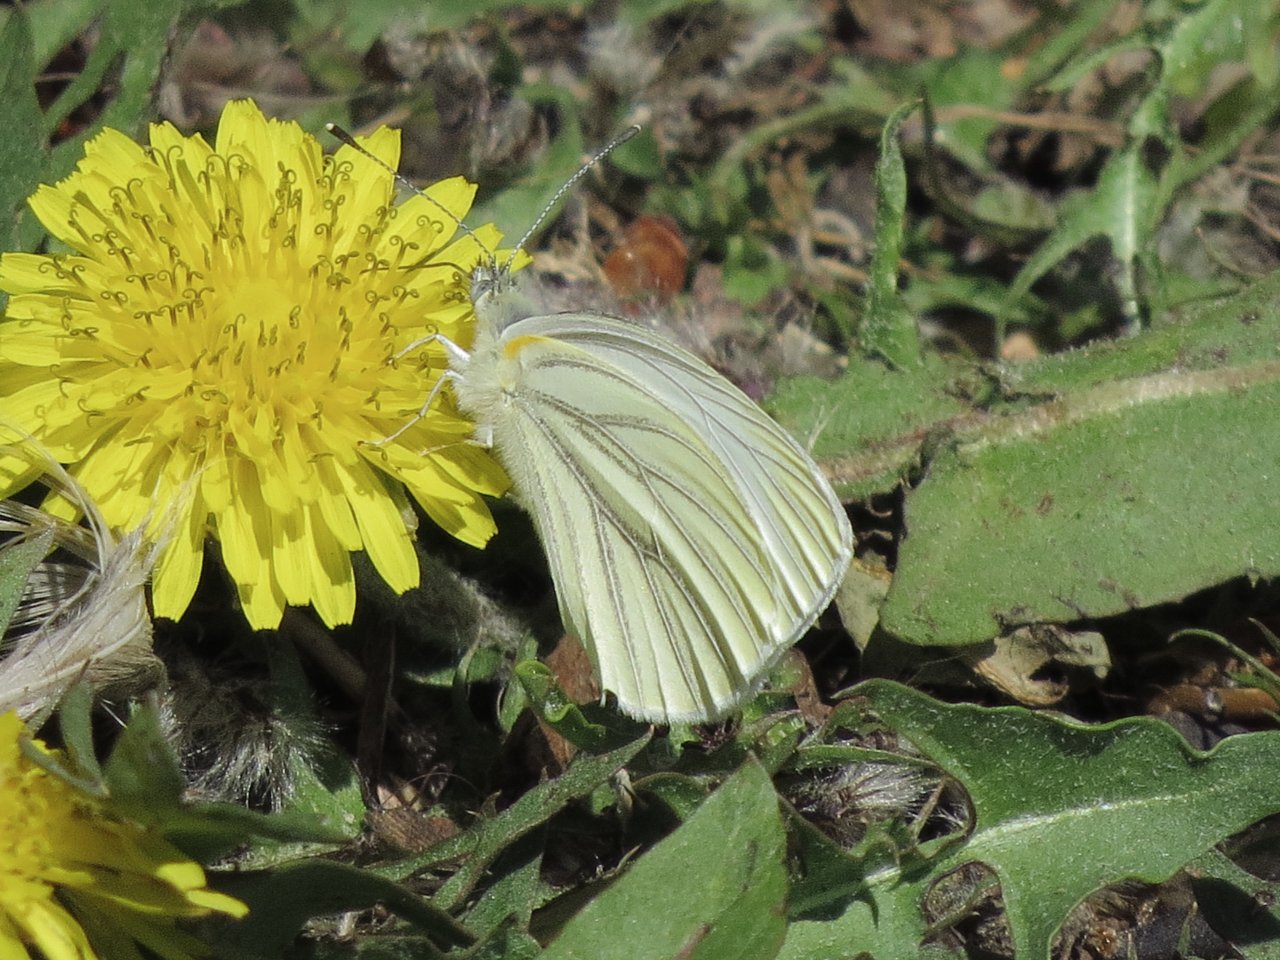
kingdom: Animalia
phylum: Arthropoda
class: Insecta
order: Lepidoptera
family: Pieridae
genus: Pieris
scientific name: Pieris oleracea
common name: Mustard White
